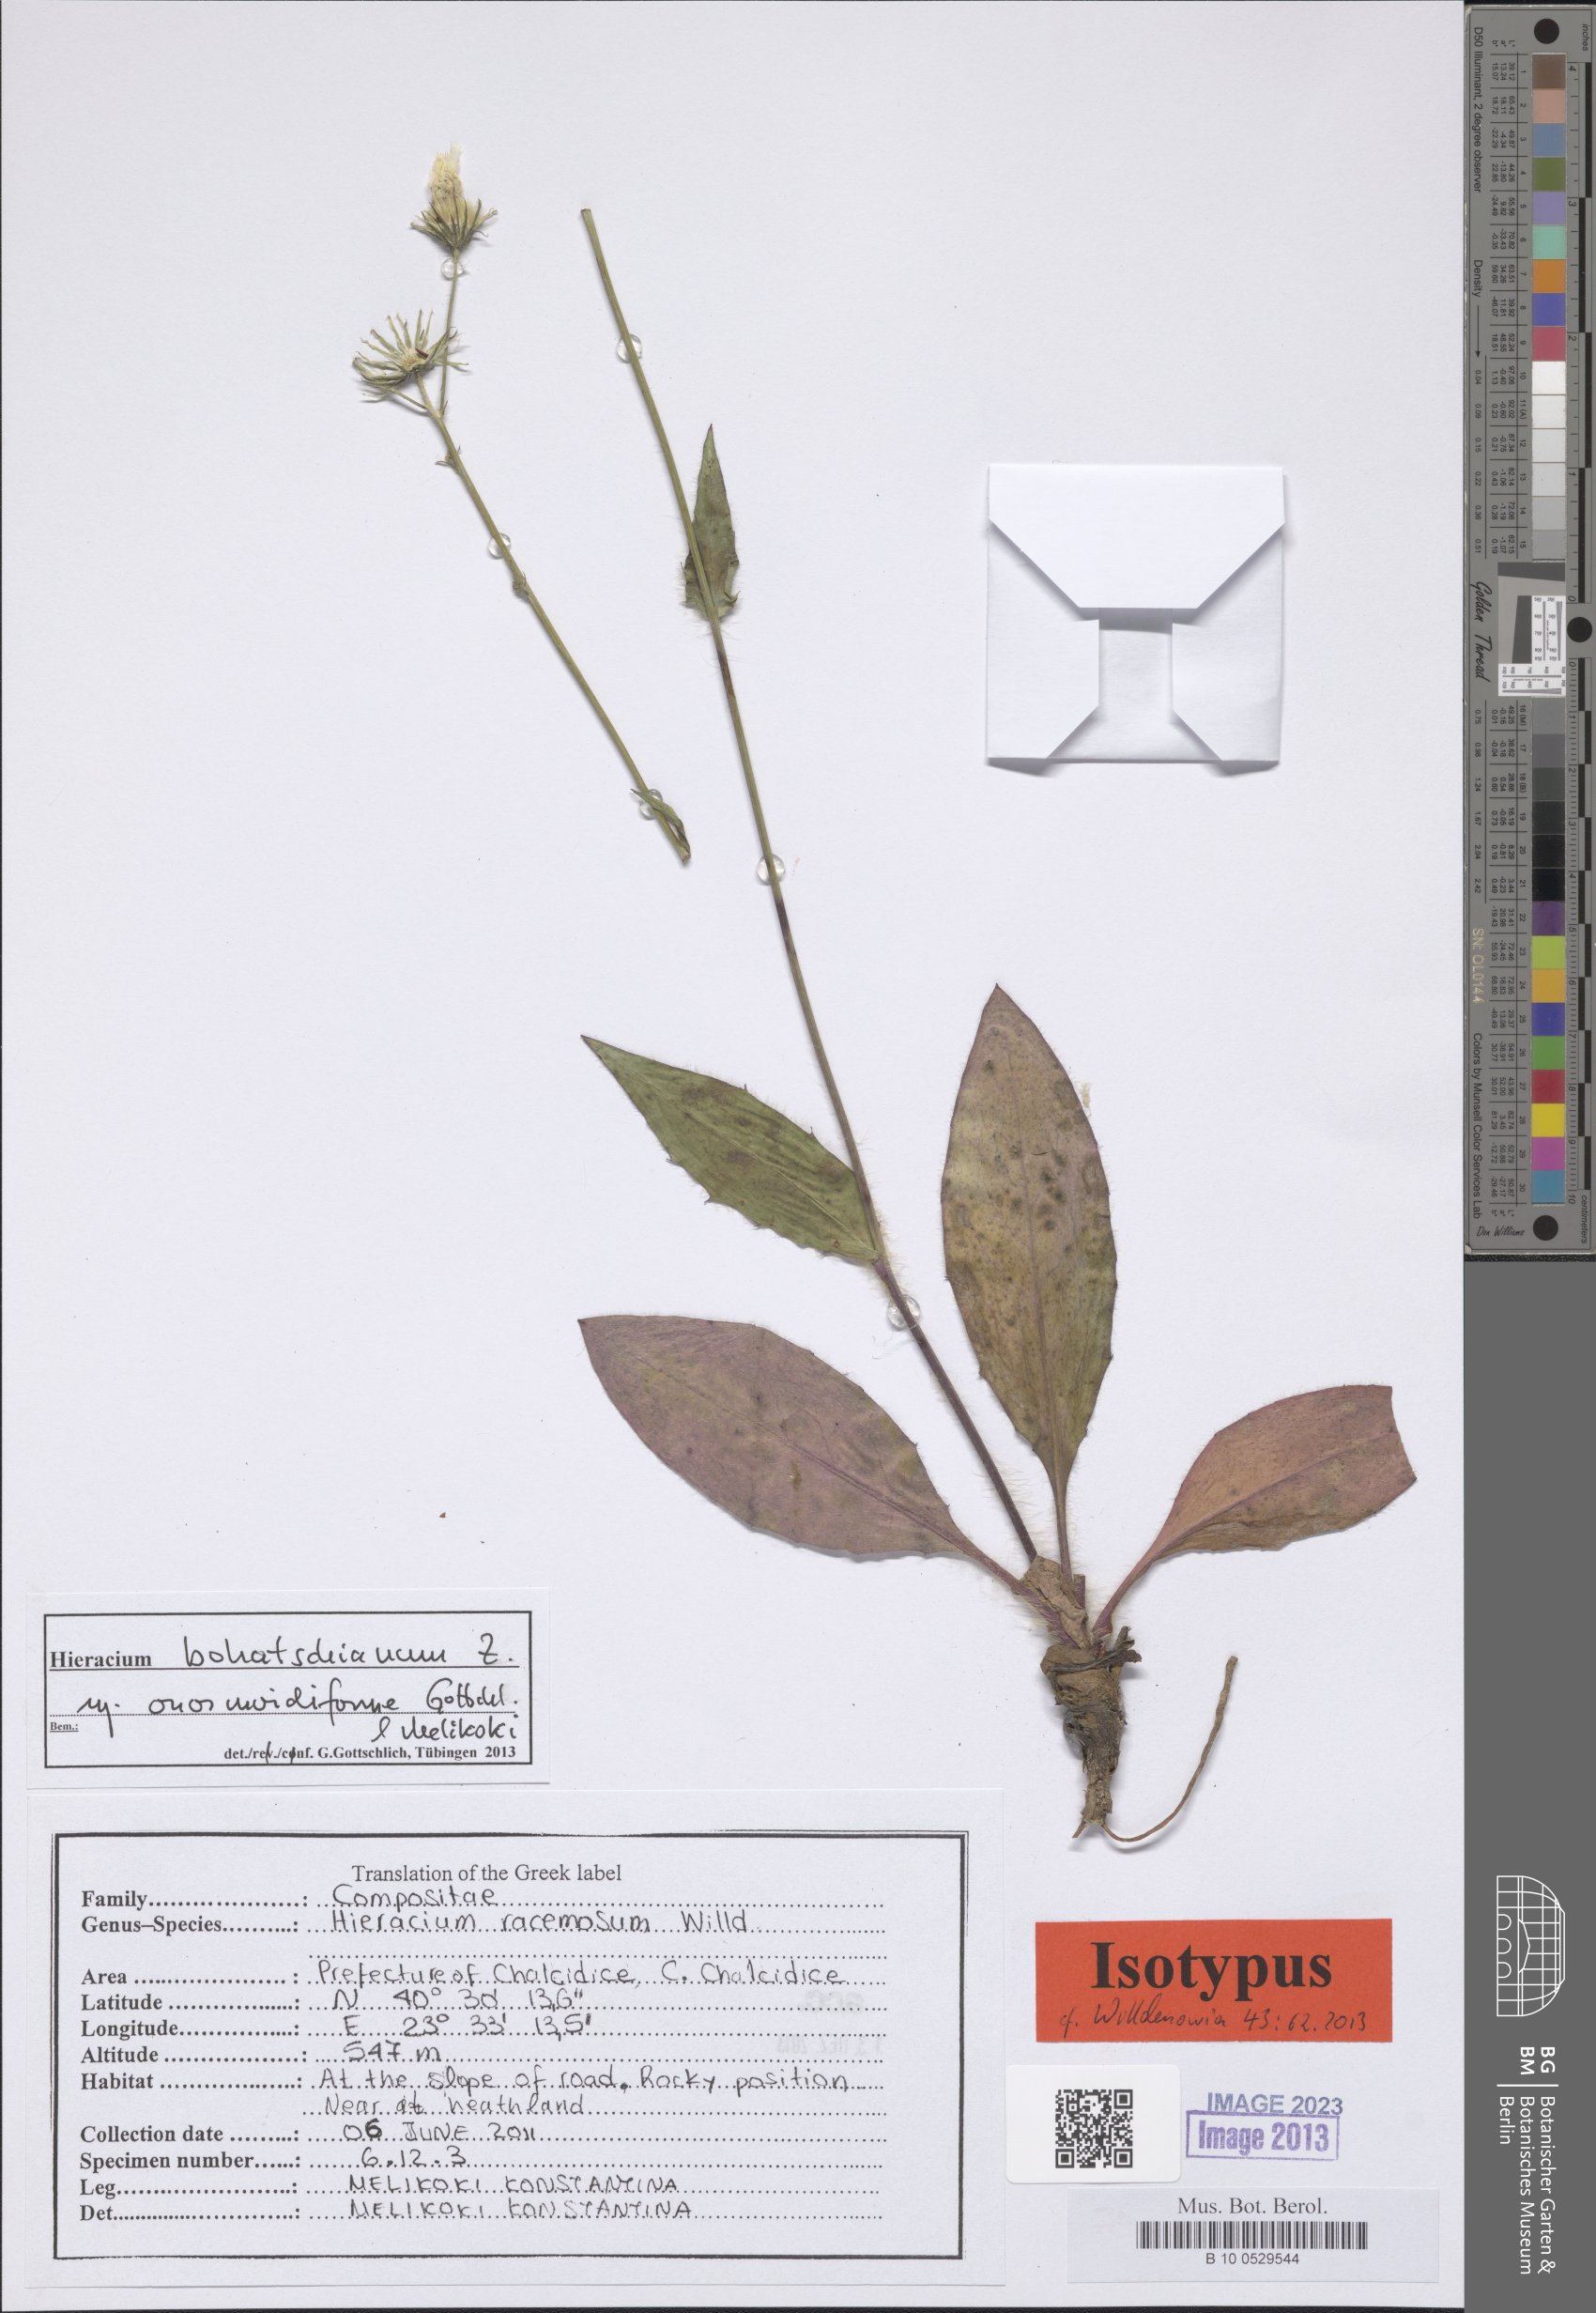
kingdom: Plantae
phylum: Tracheophyta
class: Magnoliopsida
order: Asterales
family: Asteraceae
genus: Hieracium
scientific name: Hieracium bohatschianum
